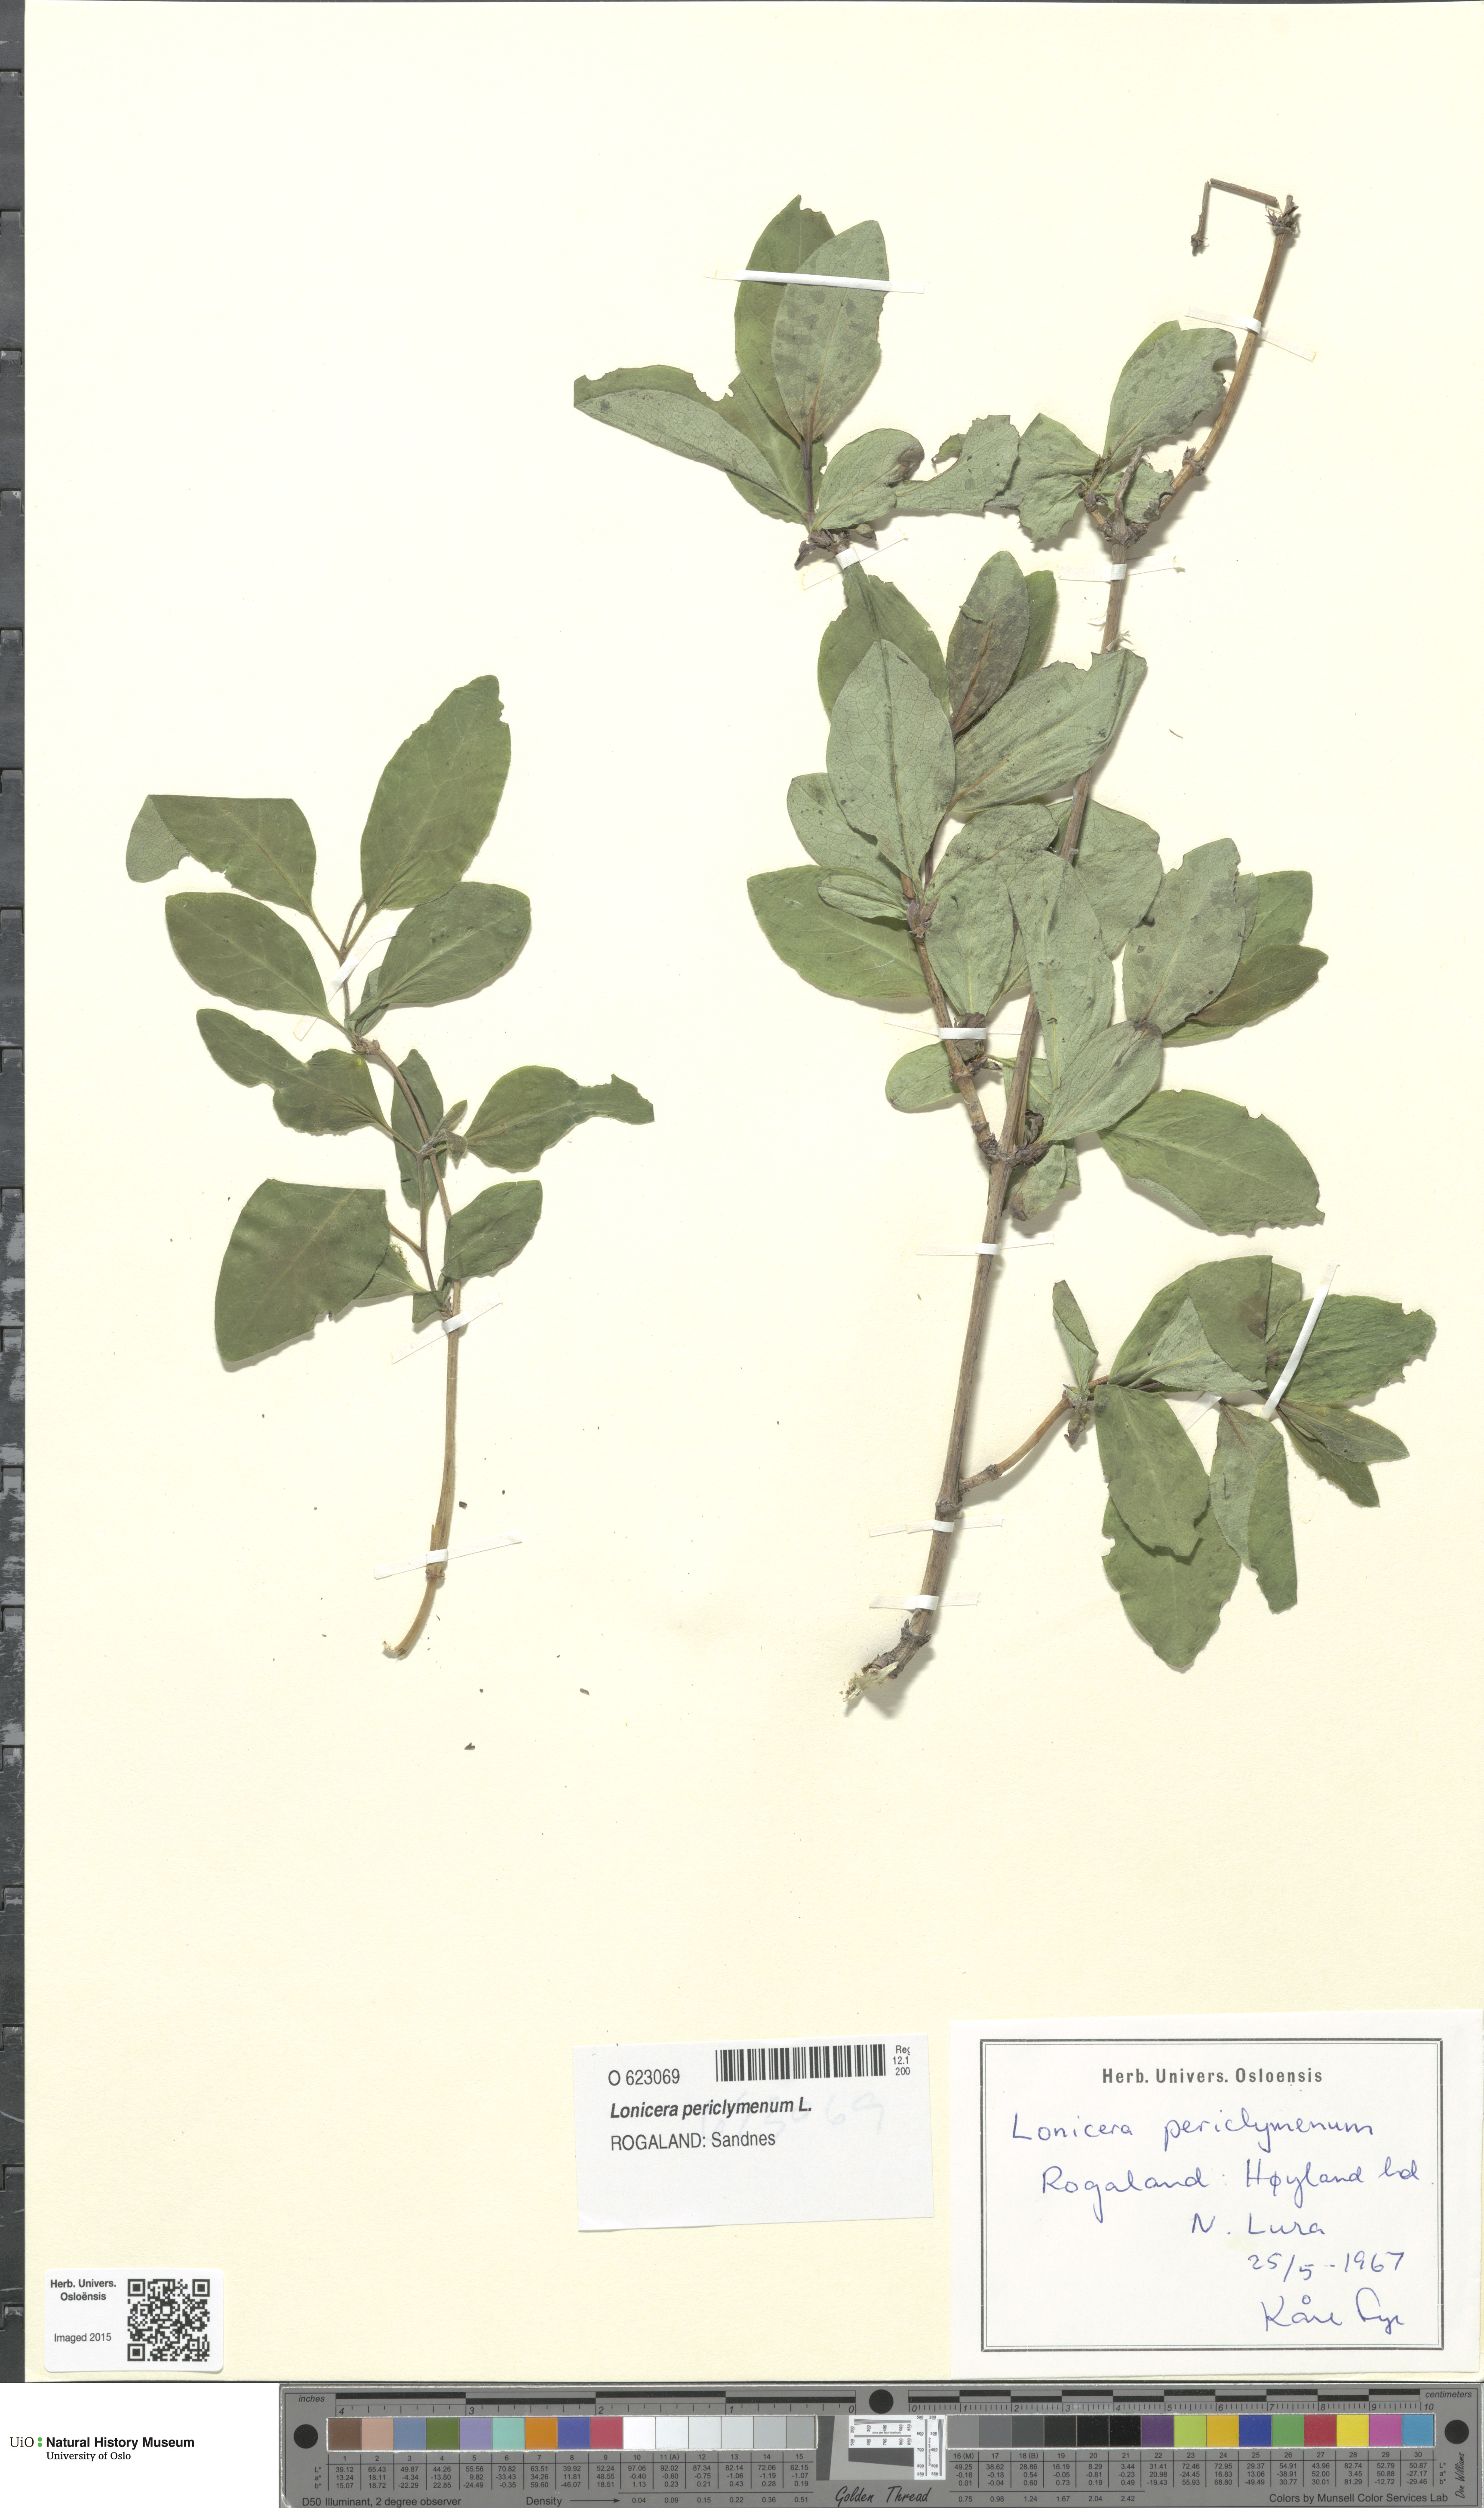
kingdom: Plantae
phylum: Tracheophyta
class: Magnoliopsida
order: Dipsacales
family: Caprifoliaceae
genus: Lonicera
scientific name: Lonicera periclymenum
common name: European honeysuckle
